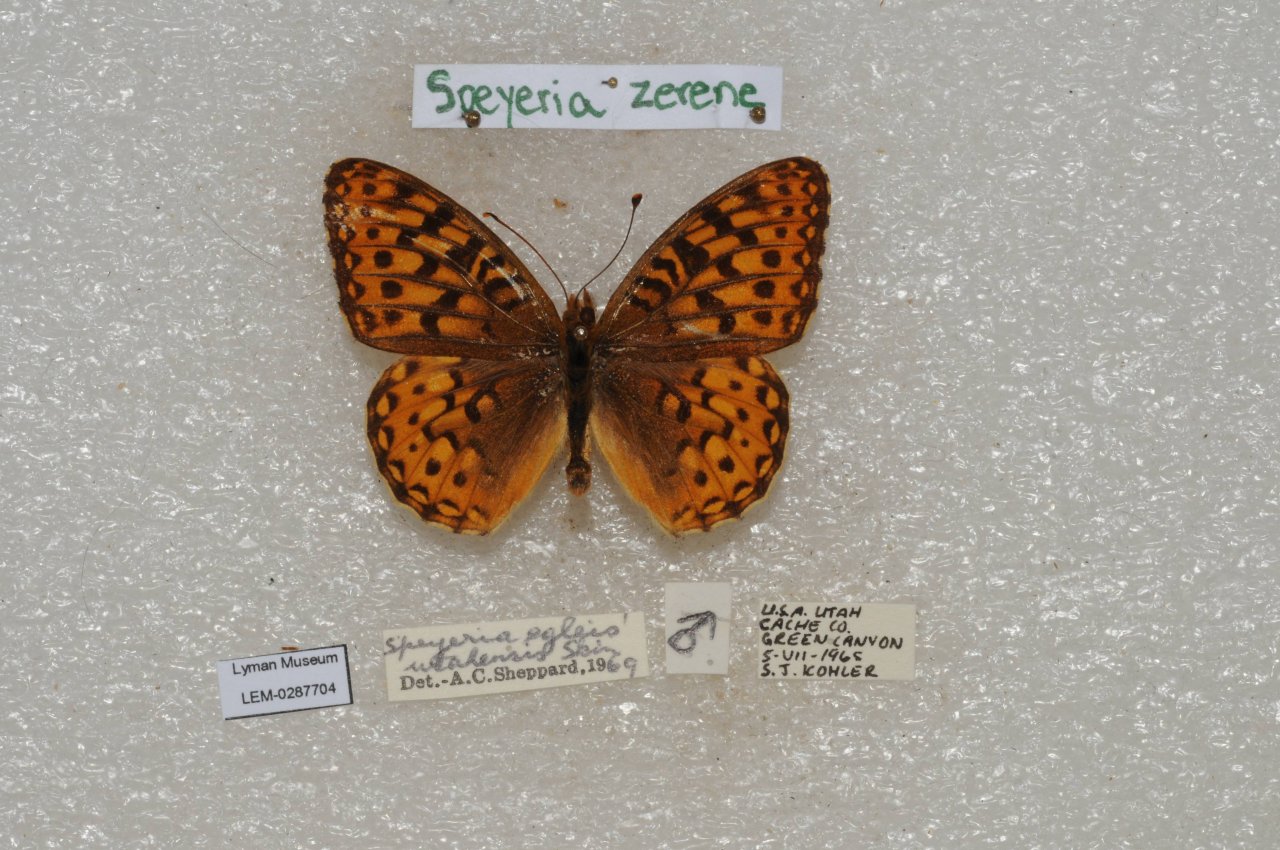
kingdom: Animalia
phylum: Arthropoda
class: Insecta
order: Lepidoptera
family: Nymphalidae
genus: Speyeria
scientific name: Speyeria zerene
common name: Zerene Fritillary
